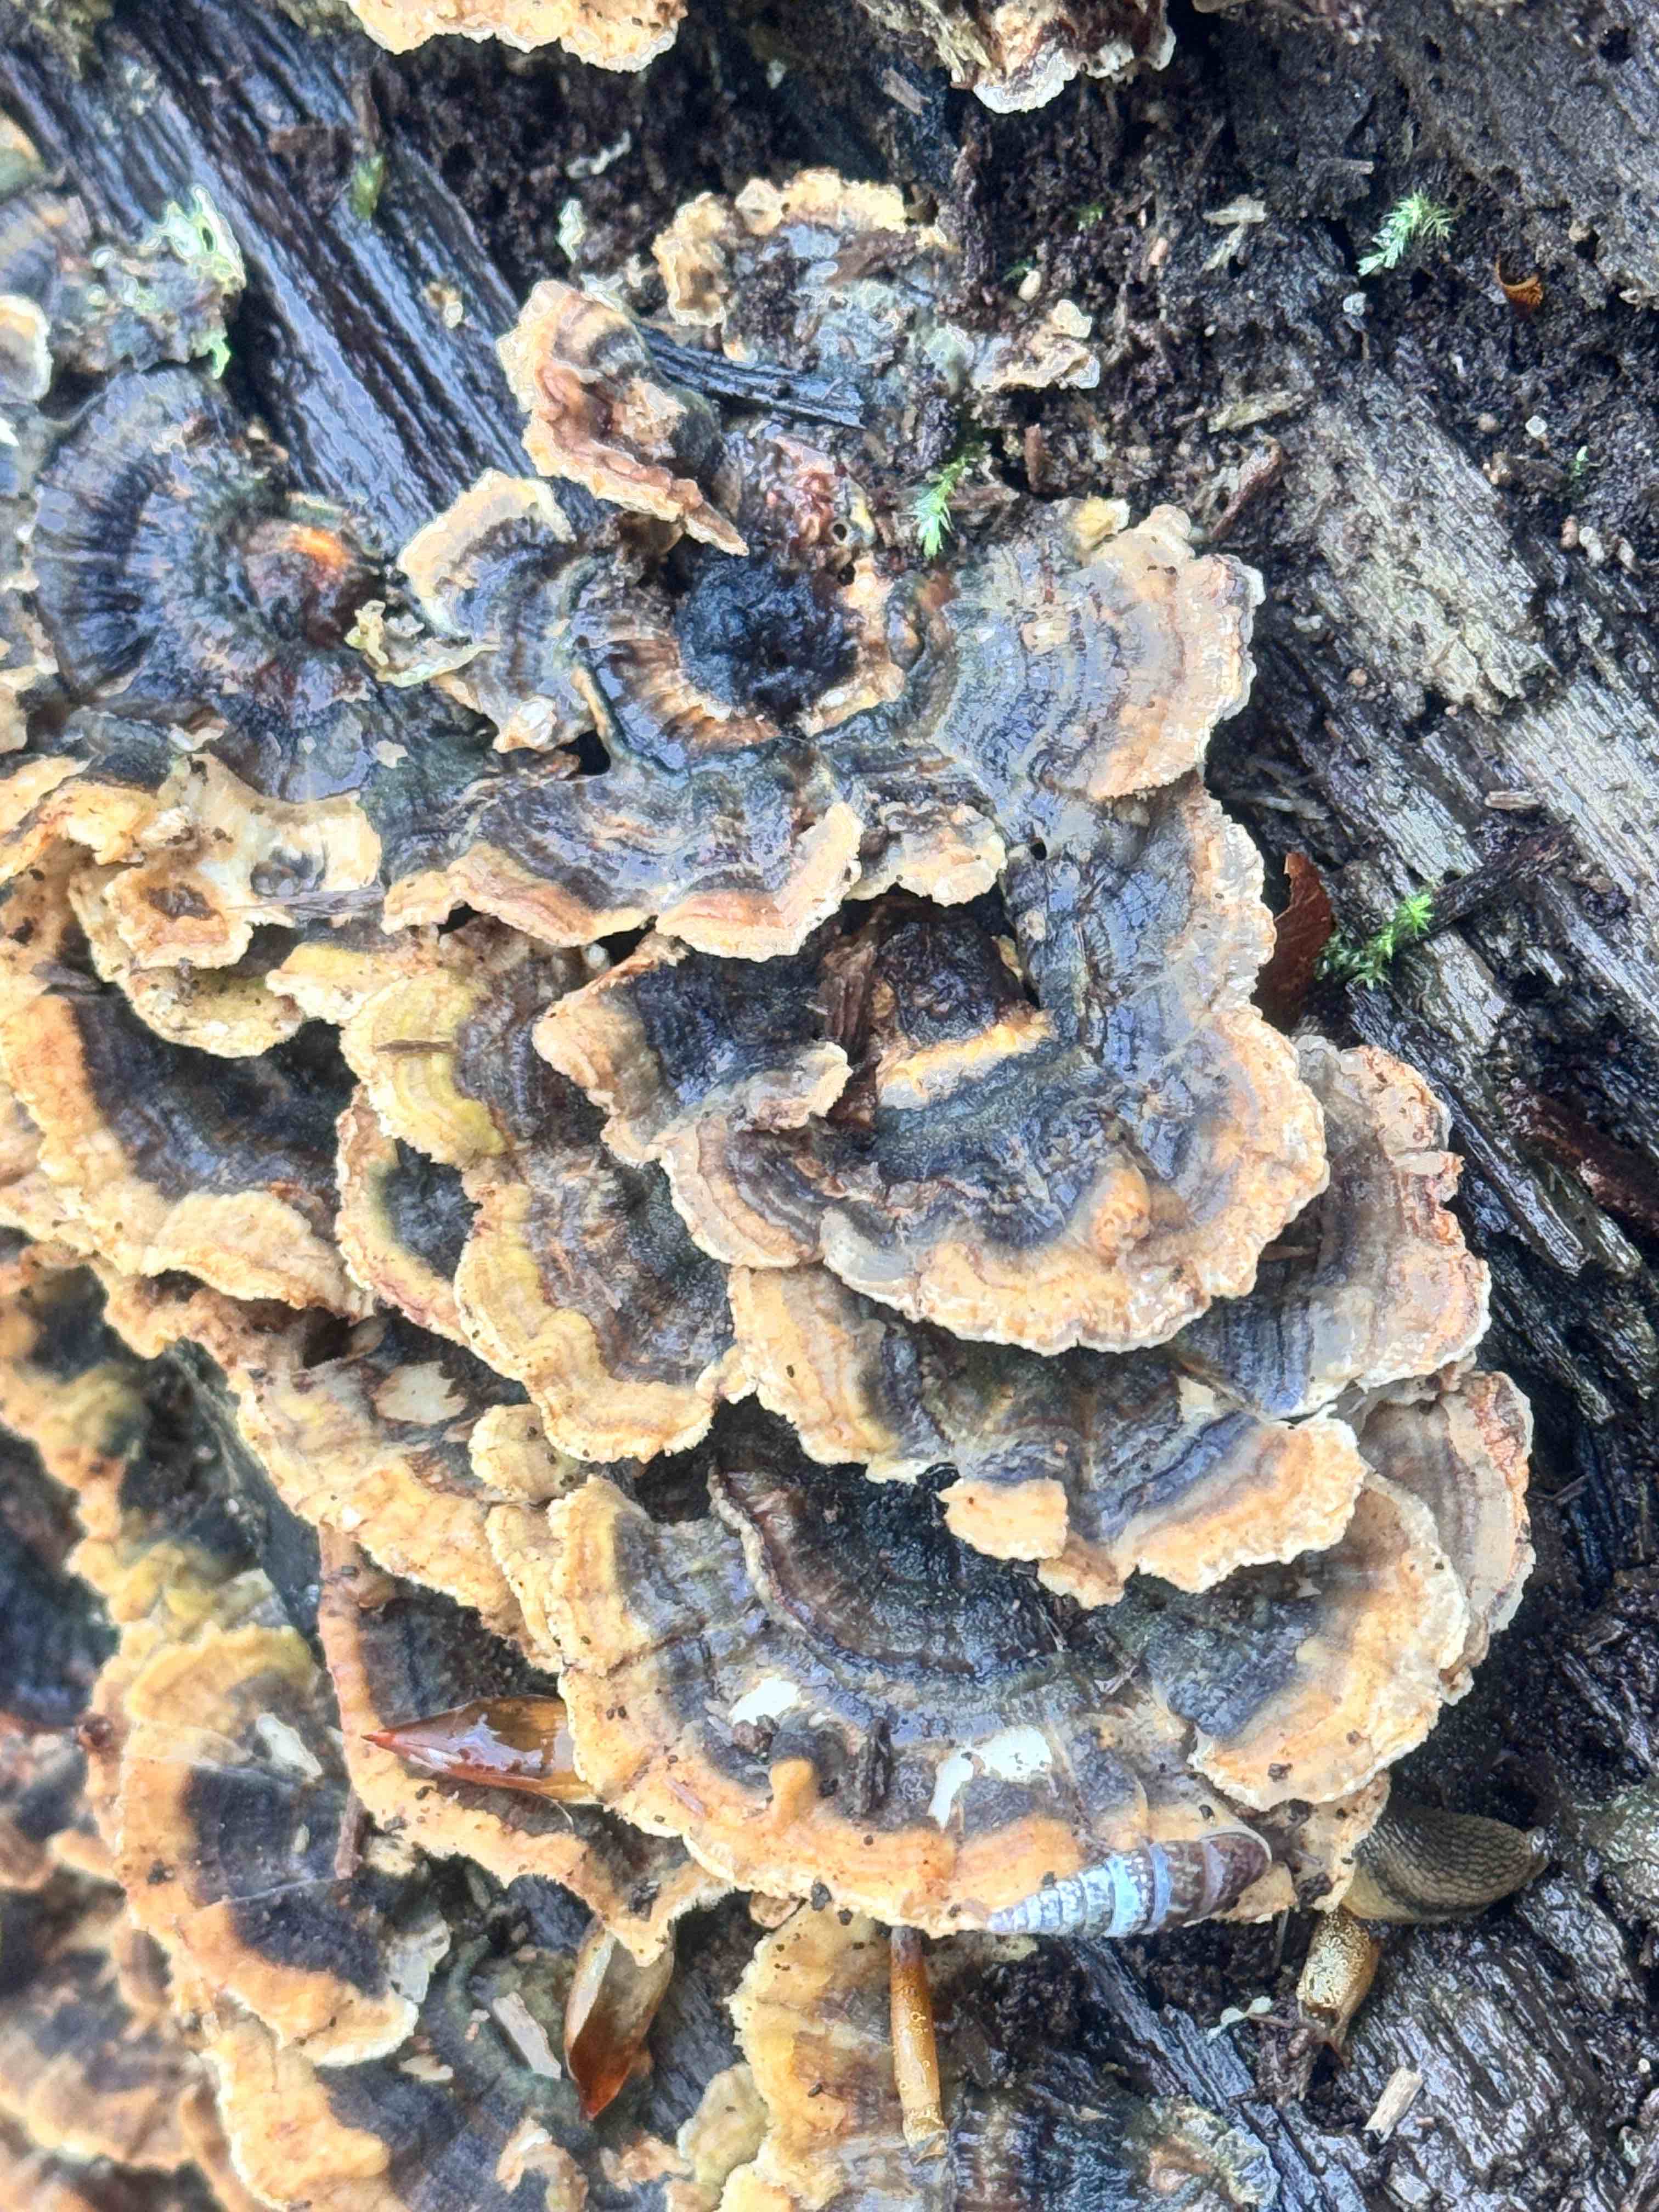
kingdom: Fungi
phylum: Basidiomycota
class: Agaricomycetes
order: Polyporales
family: Polyporaceae
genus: Trametes
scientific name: Trametes versicolor
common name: broget læderporesvamp
